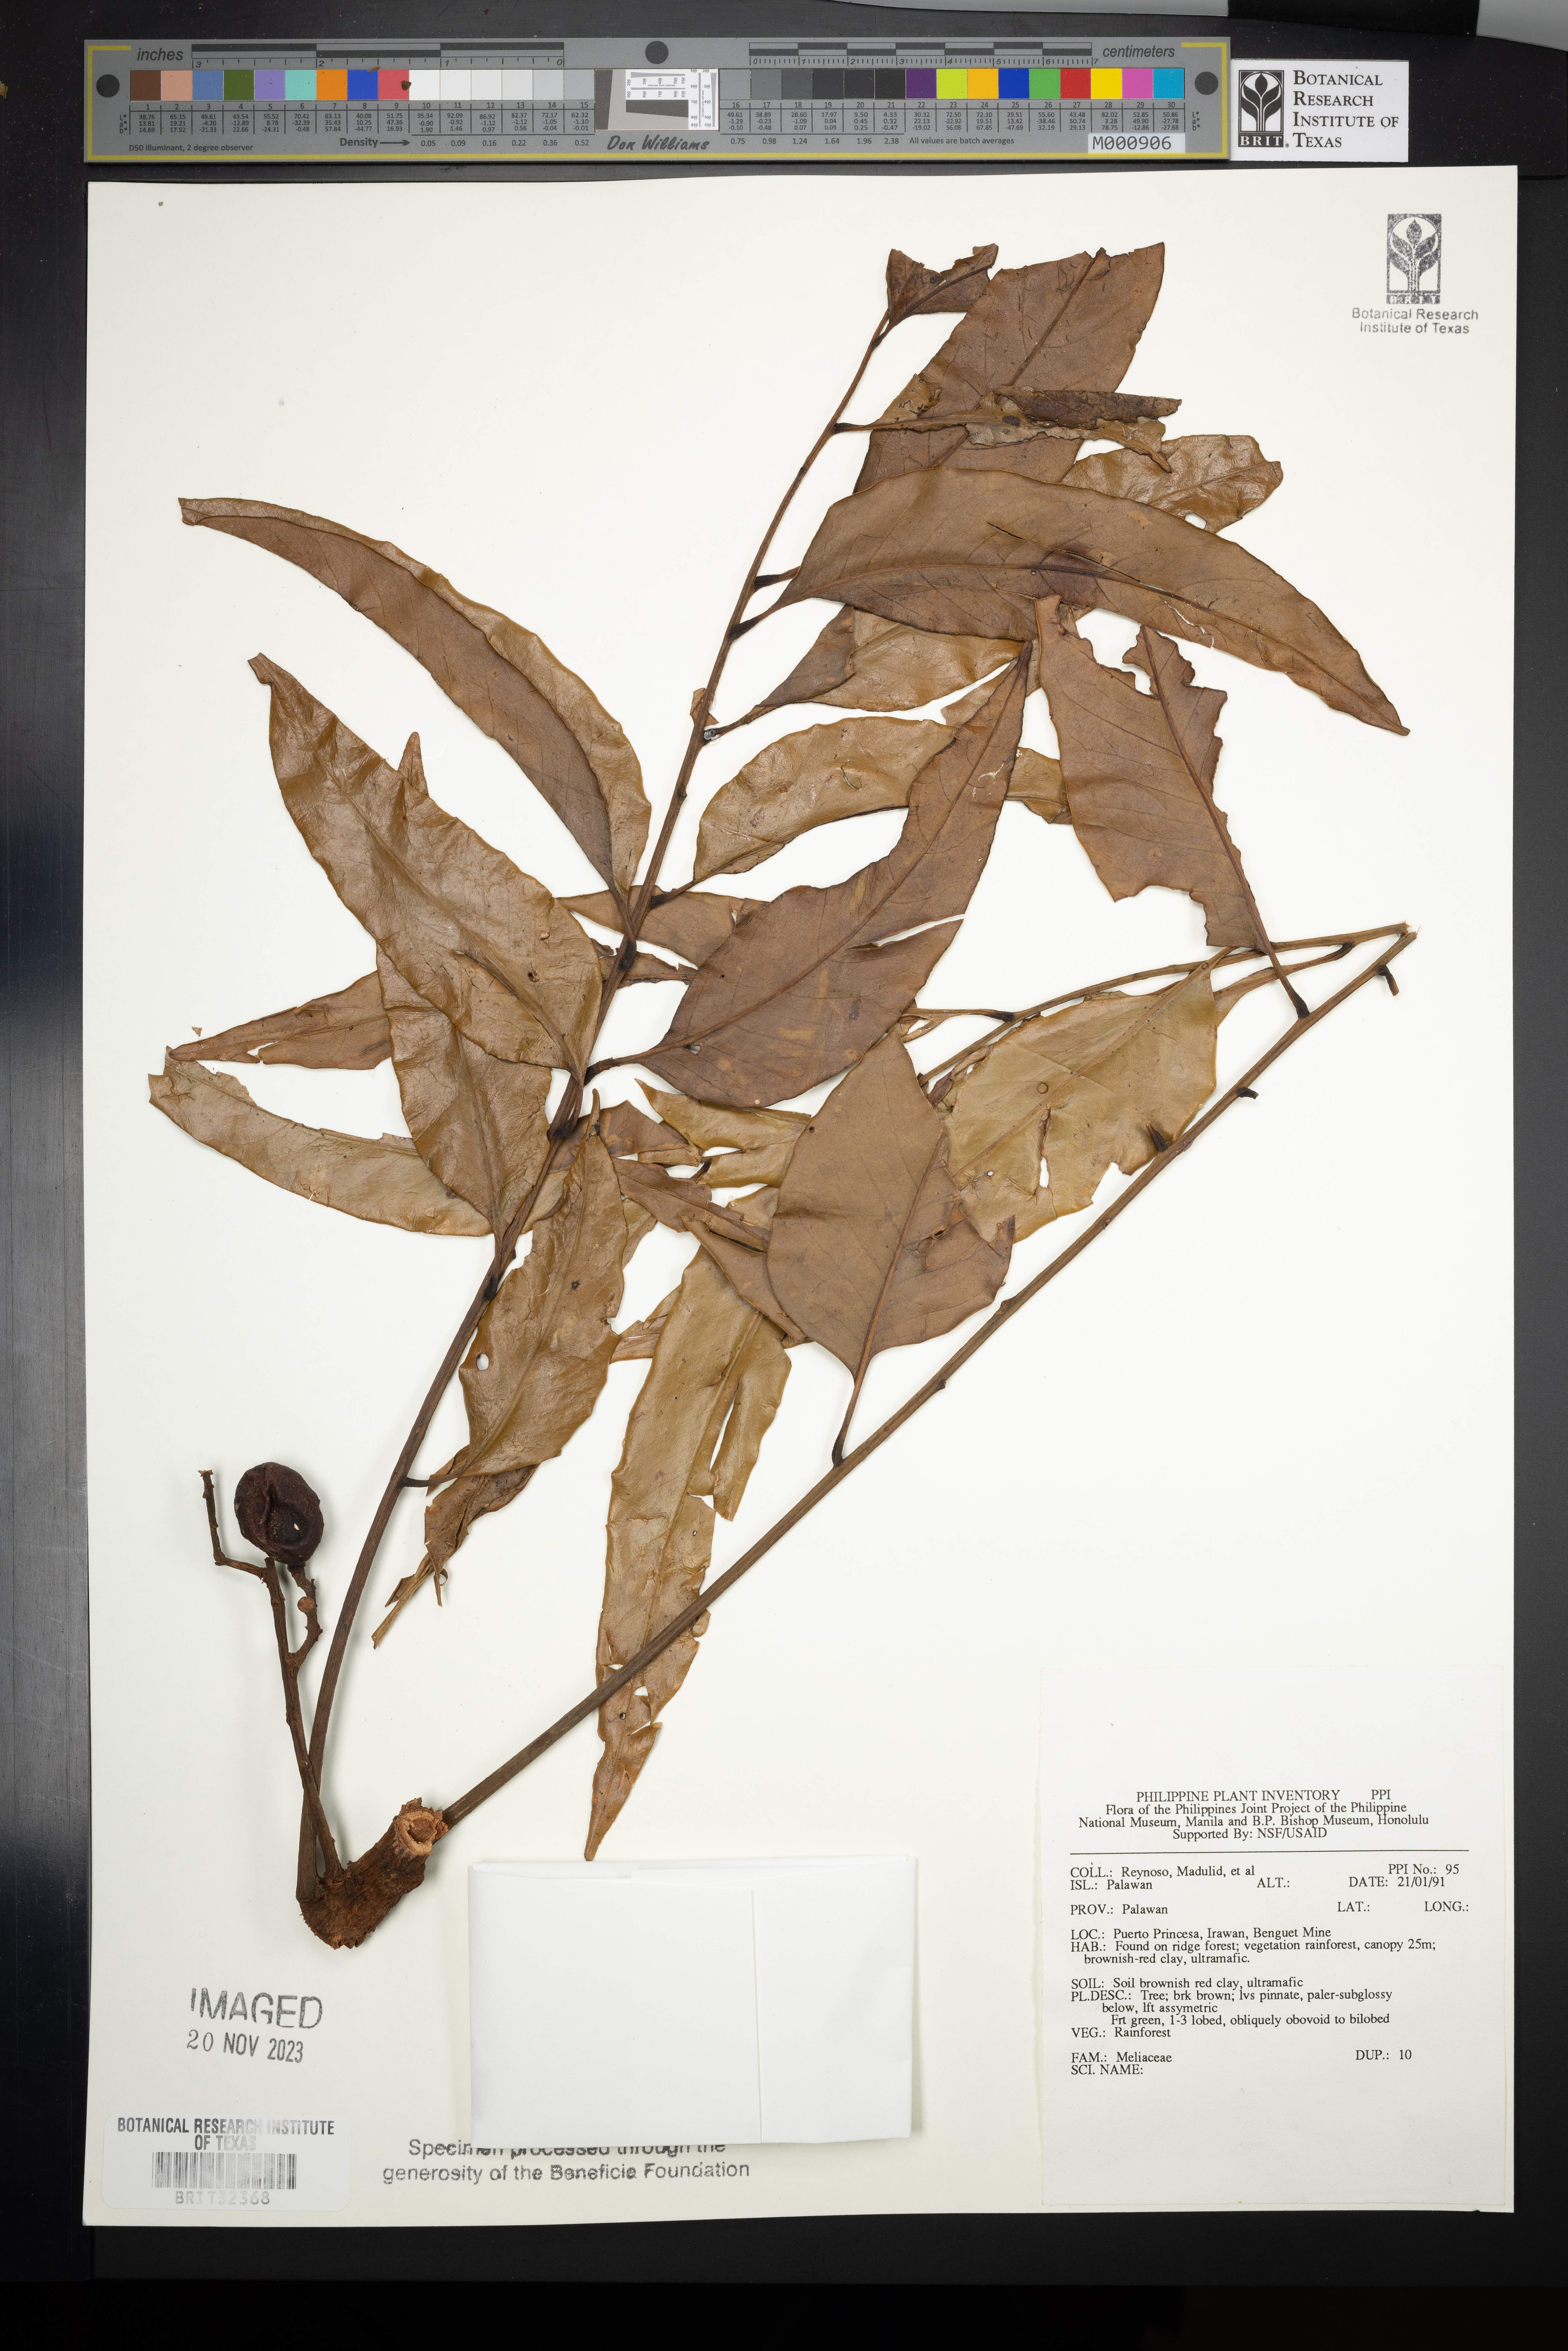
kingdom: Plantae
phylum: Tracheophyta
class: Magnoliopsida
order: Sapindales
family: Meliaceae
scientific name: Meliaceae
